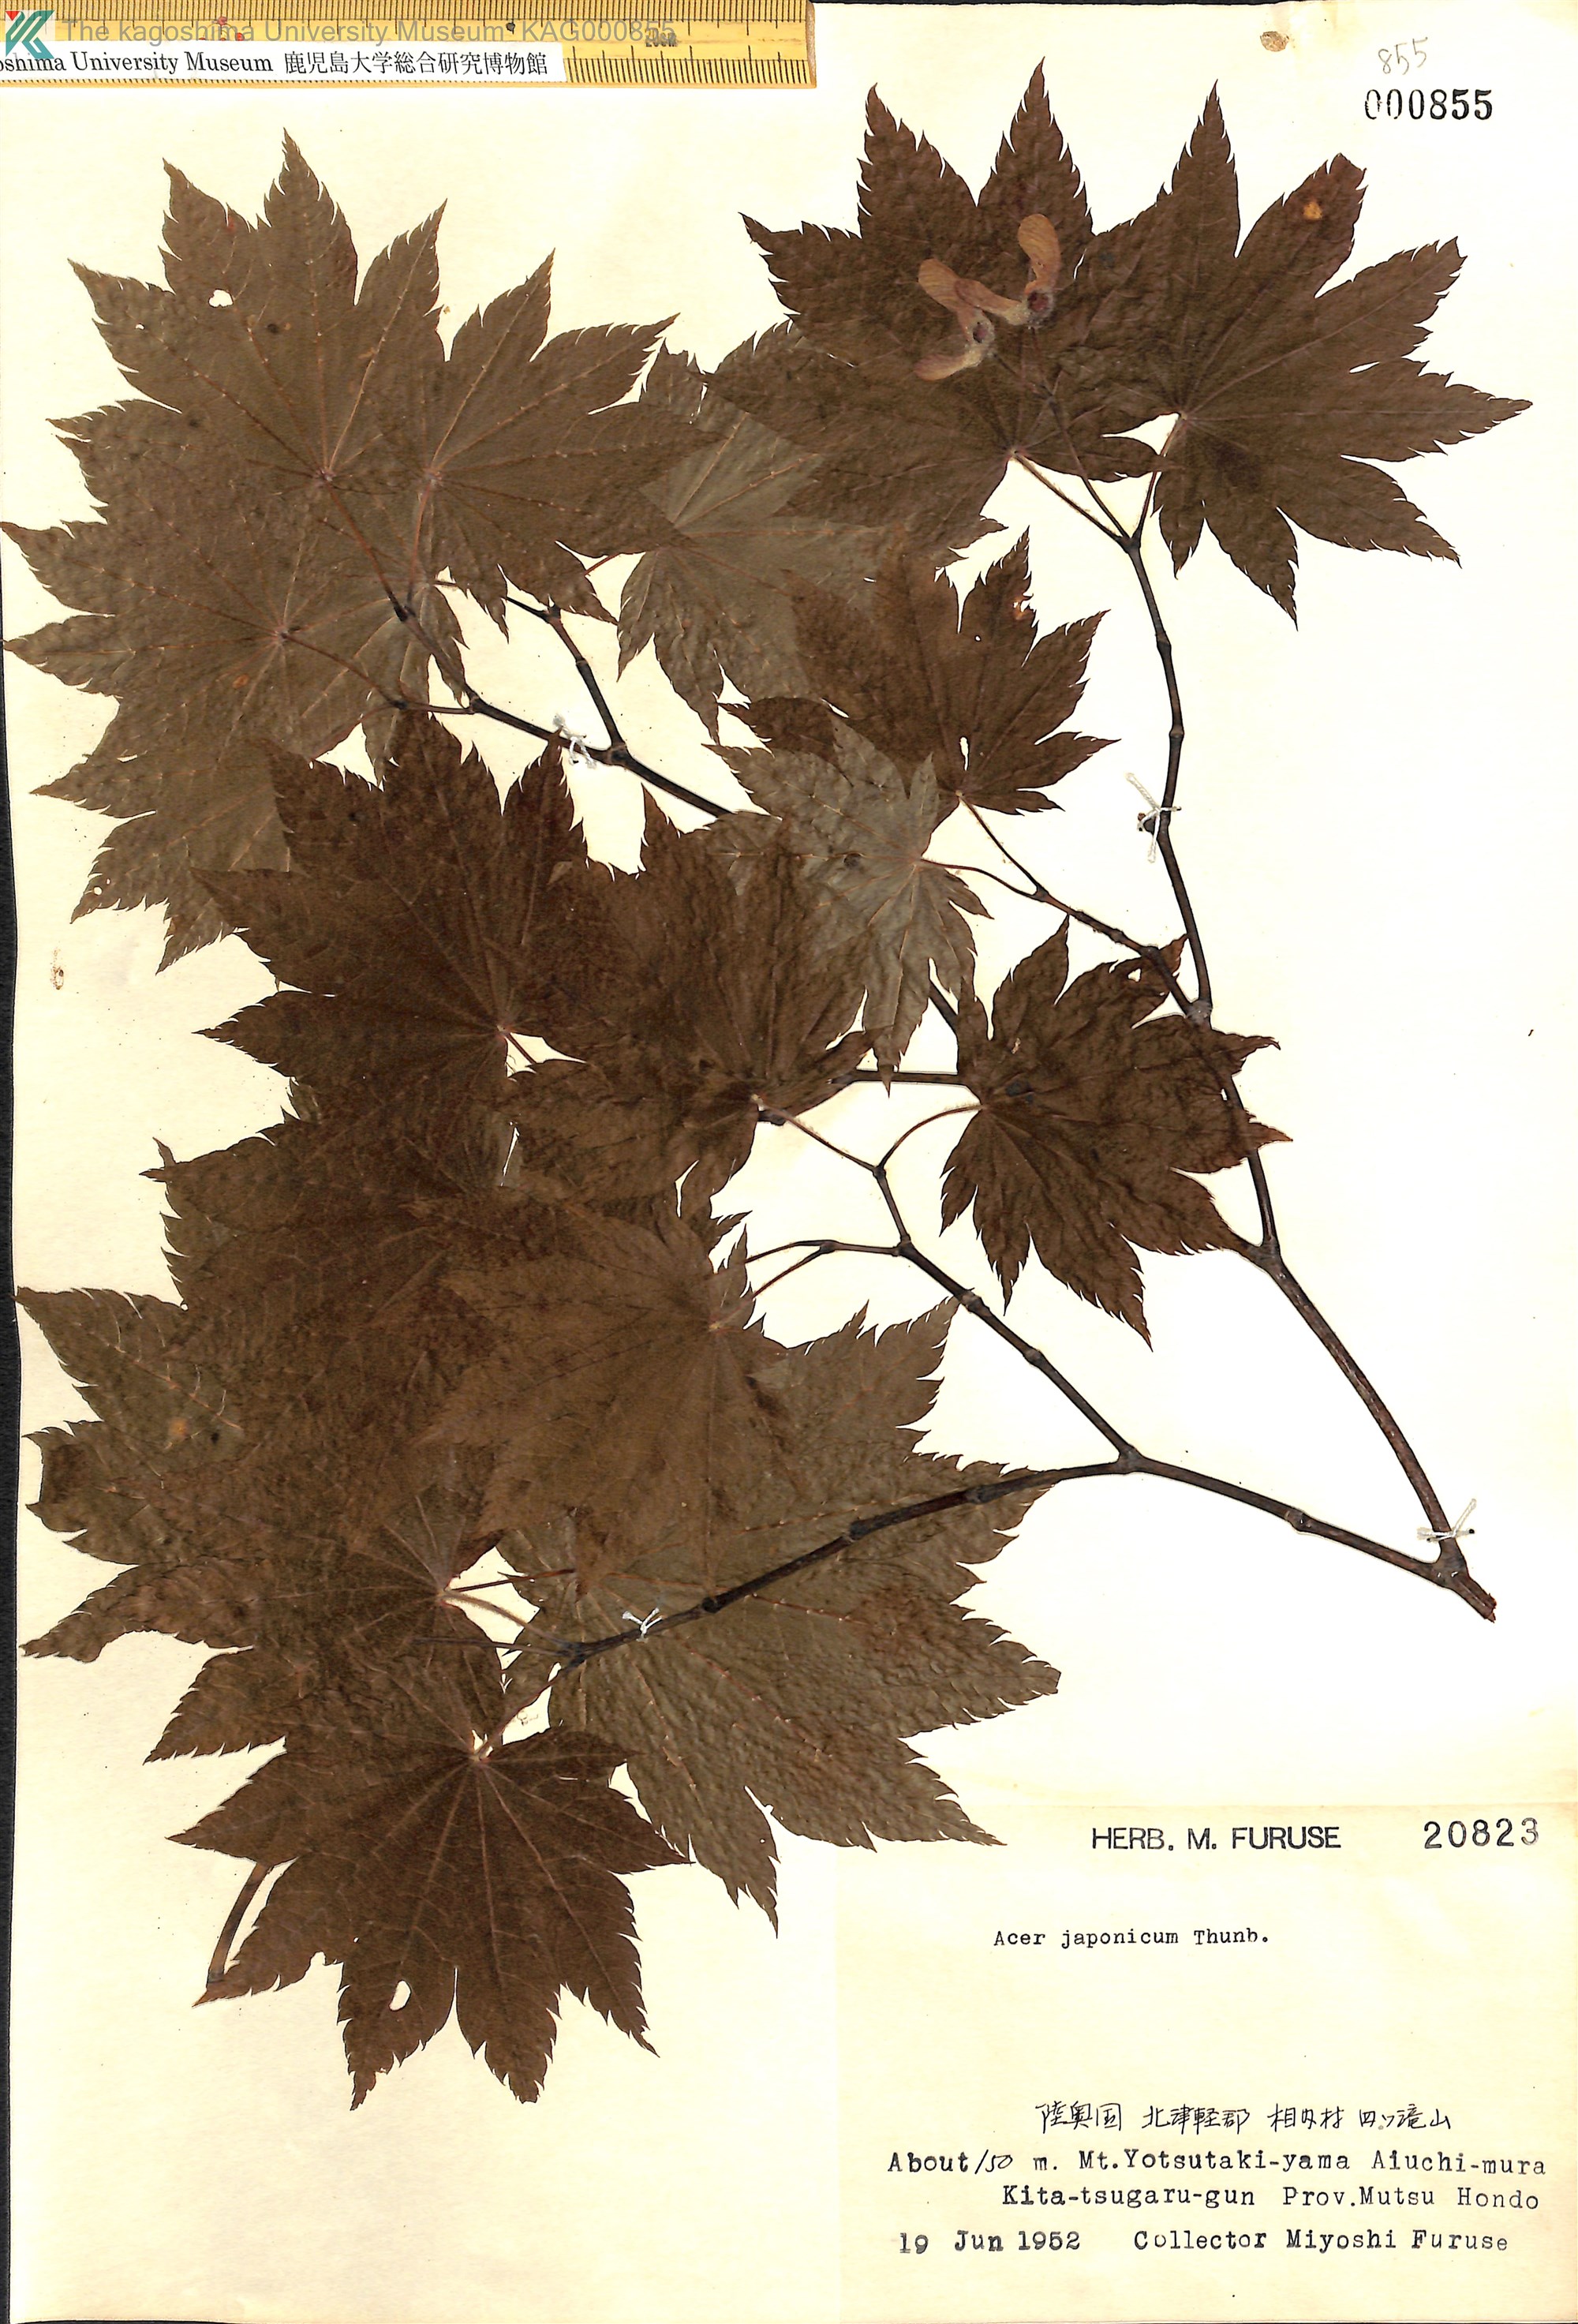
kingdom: Plantae
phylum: Tracheophyta
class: Magnoliopsida
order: Sapindales
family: Sapindaceae
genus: Acer
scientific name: Acer japonicum
